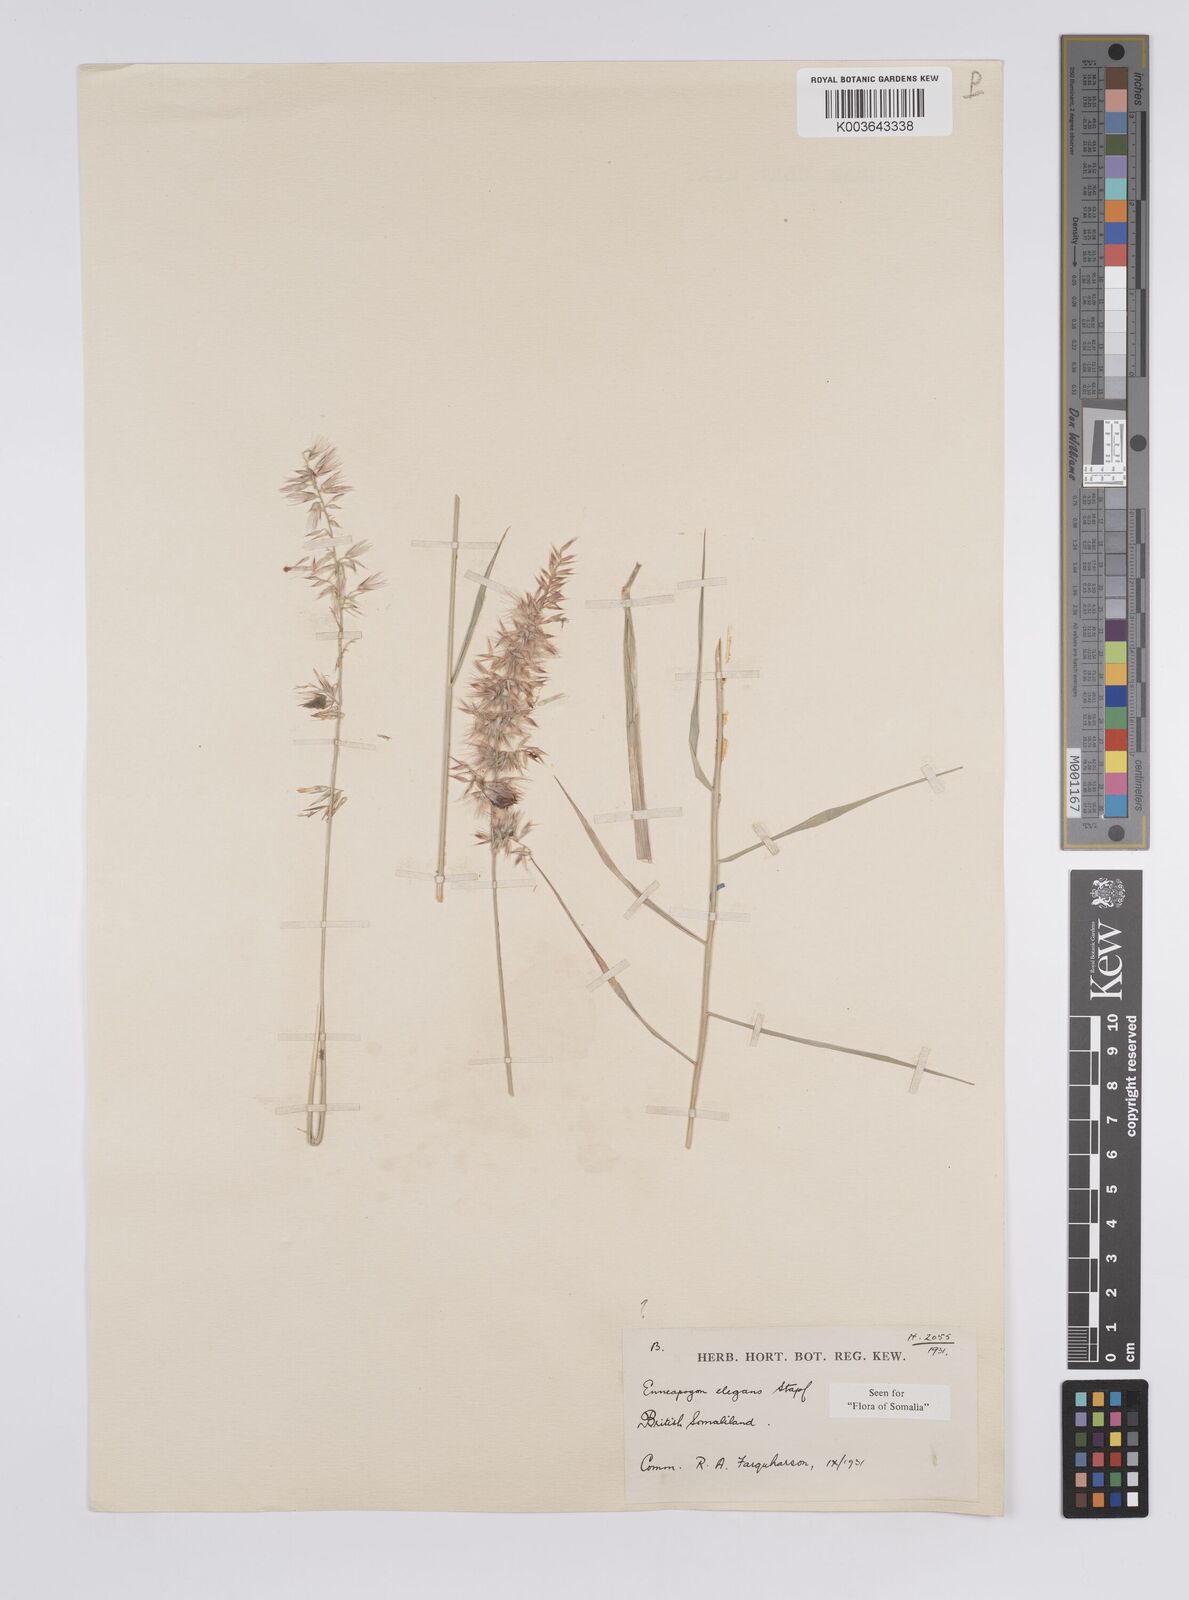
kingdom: Plantae
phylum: Tracheophyta
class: Liliopsida
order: Poales
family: Poaceae
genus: Enneapogon
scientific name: Enneapogon persicus
